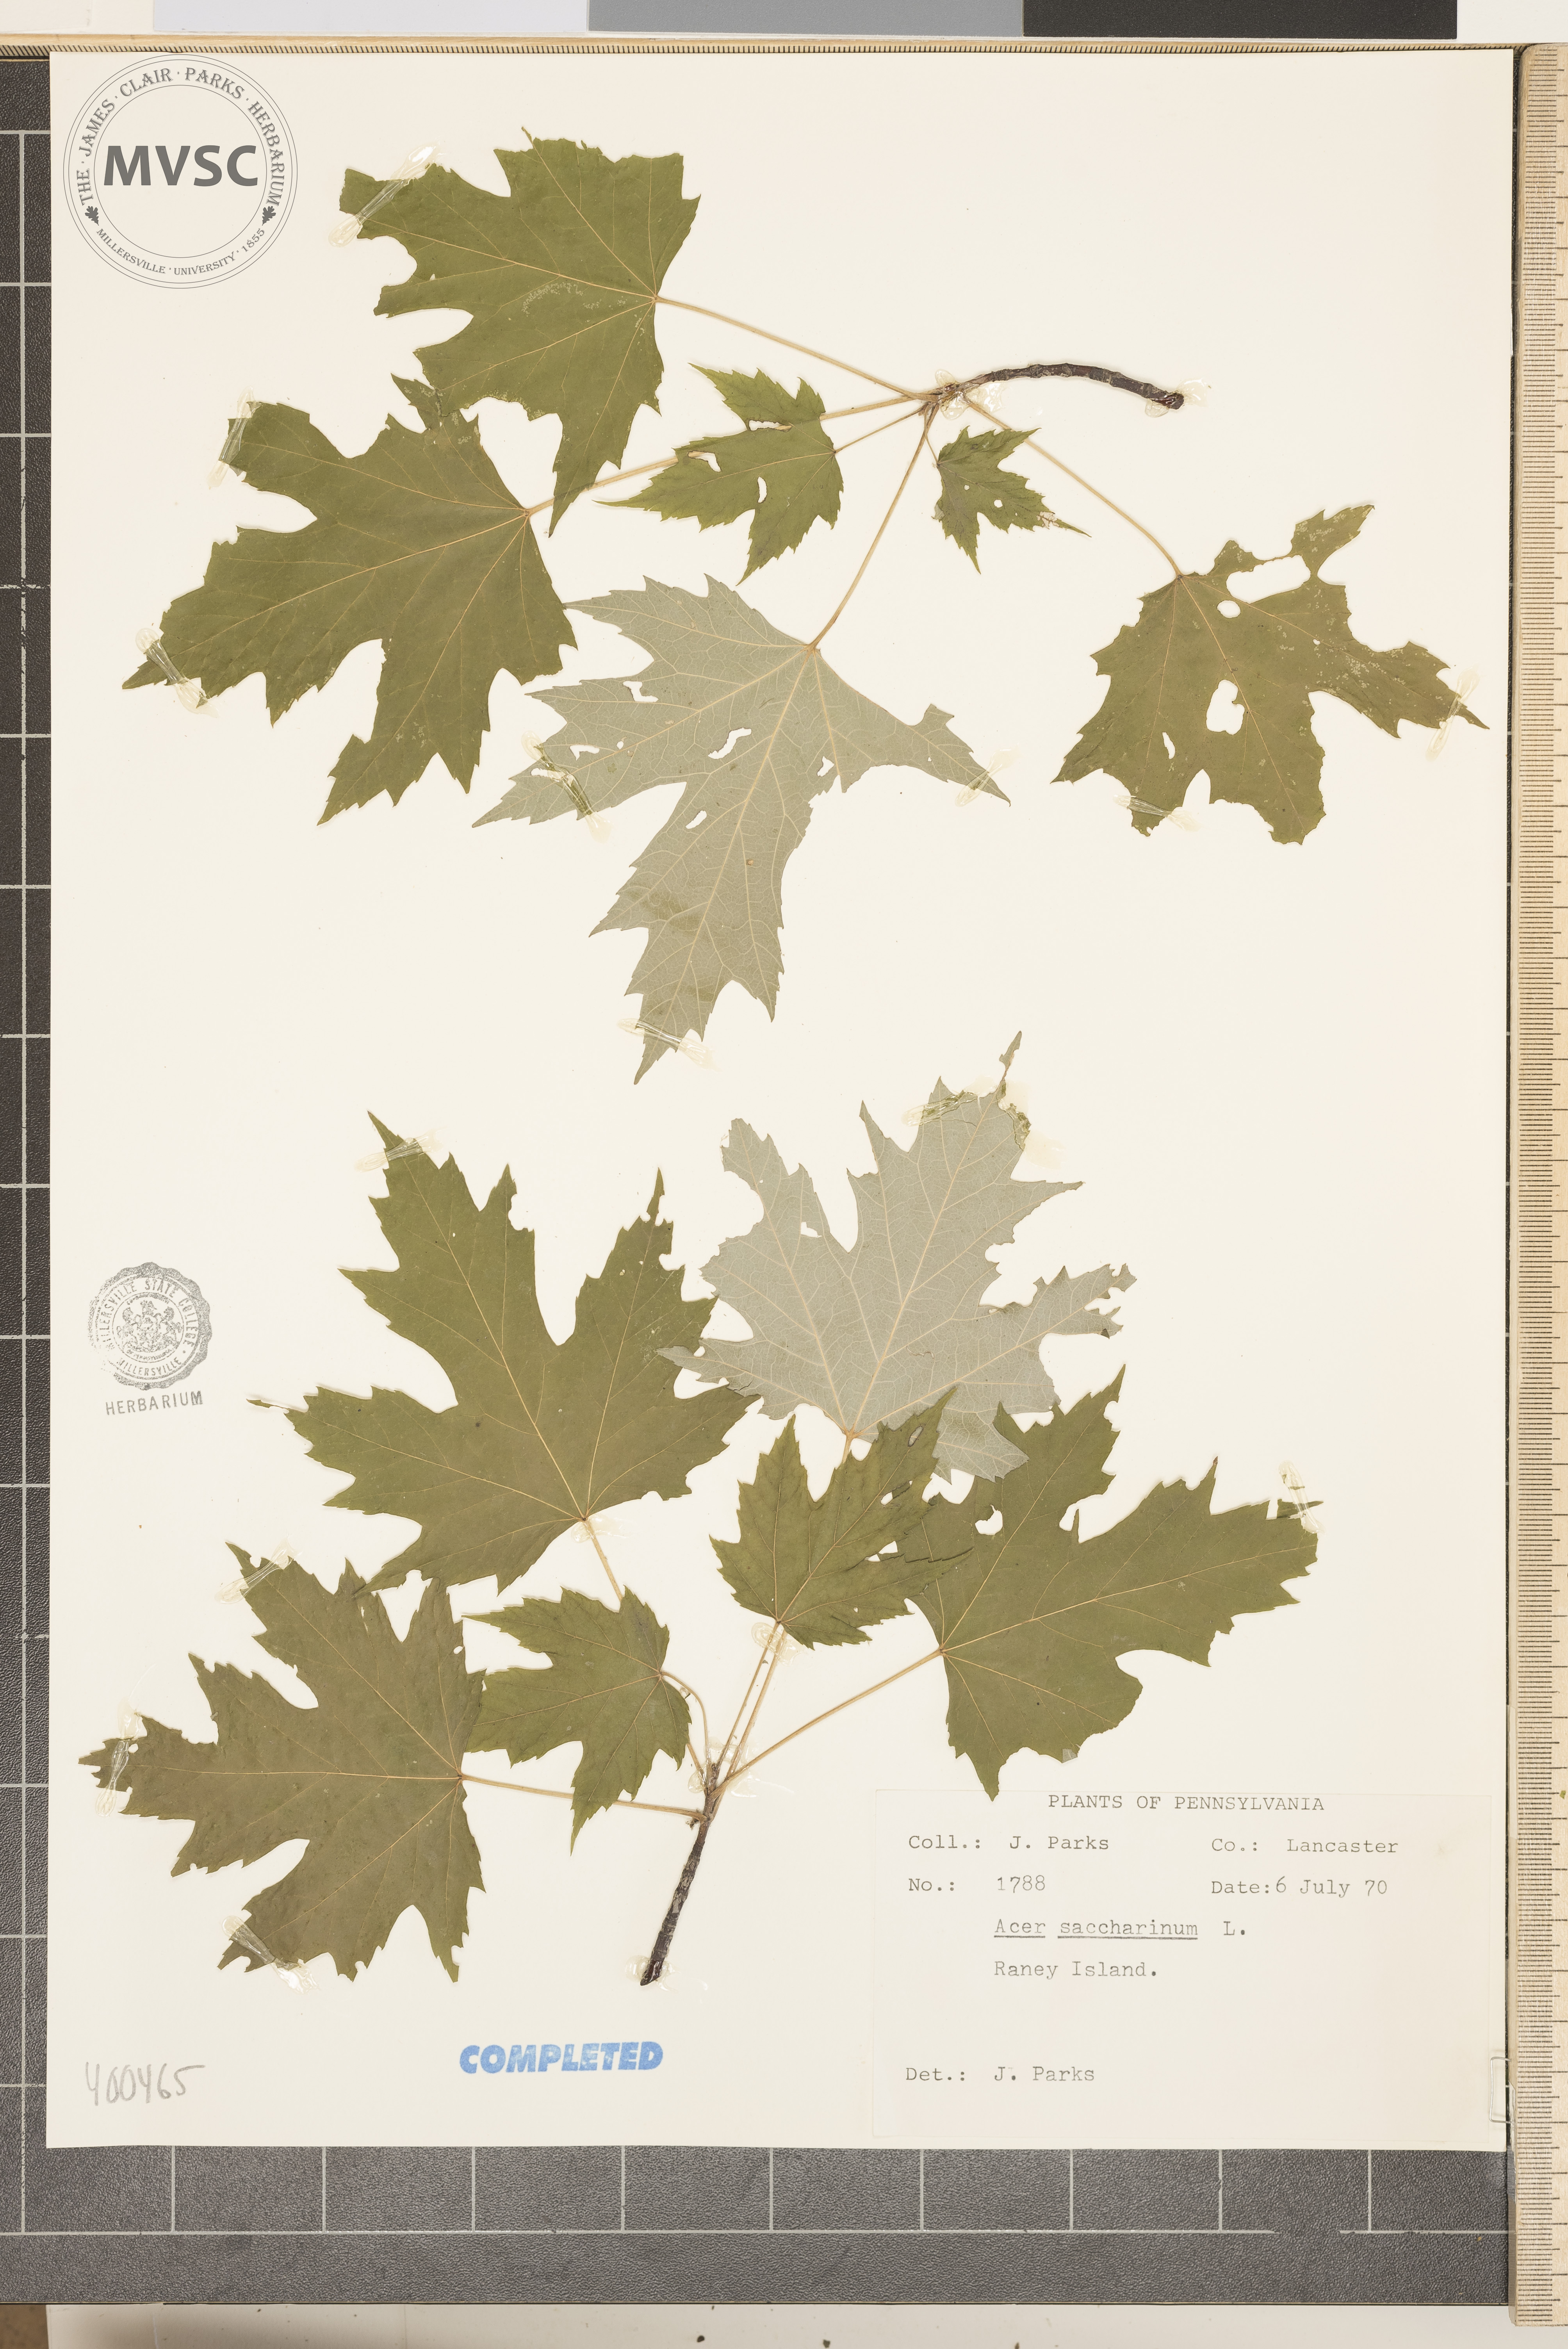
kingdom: Plantae
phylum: Tracheophyta
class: Magnoliopsida
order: Sapindales
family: Sapindaceae
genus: Acer
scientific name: Acer saccharinum
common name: silver maple
